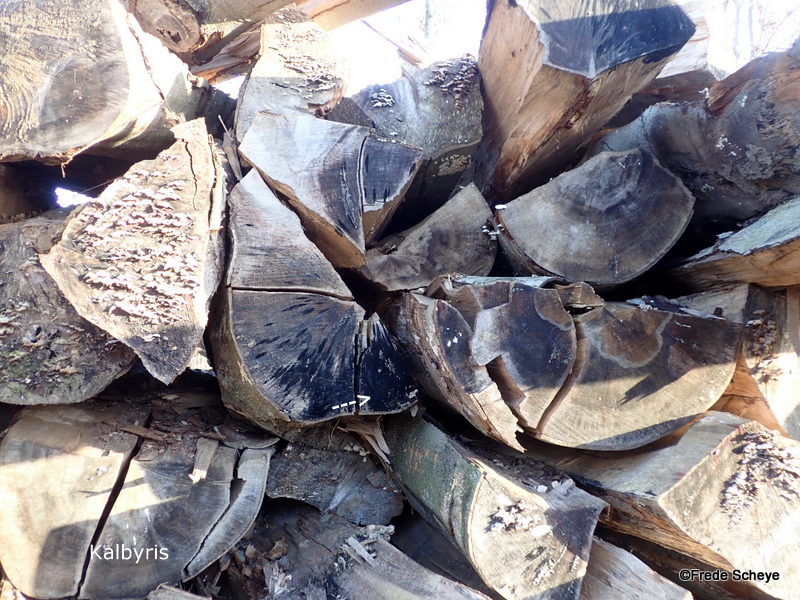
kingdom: Fungi
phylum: Ascomycota
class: Leotiomycetes
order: Helotiales
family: Helotiaceae
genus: Bispora
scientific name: Bispora pallescens
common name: måtte-snitskive
